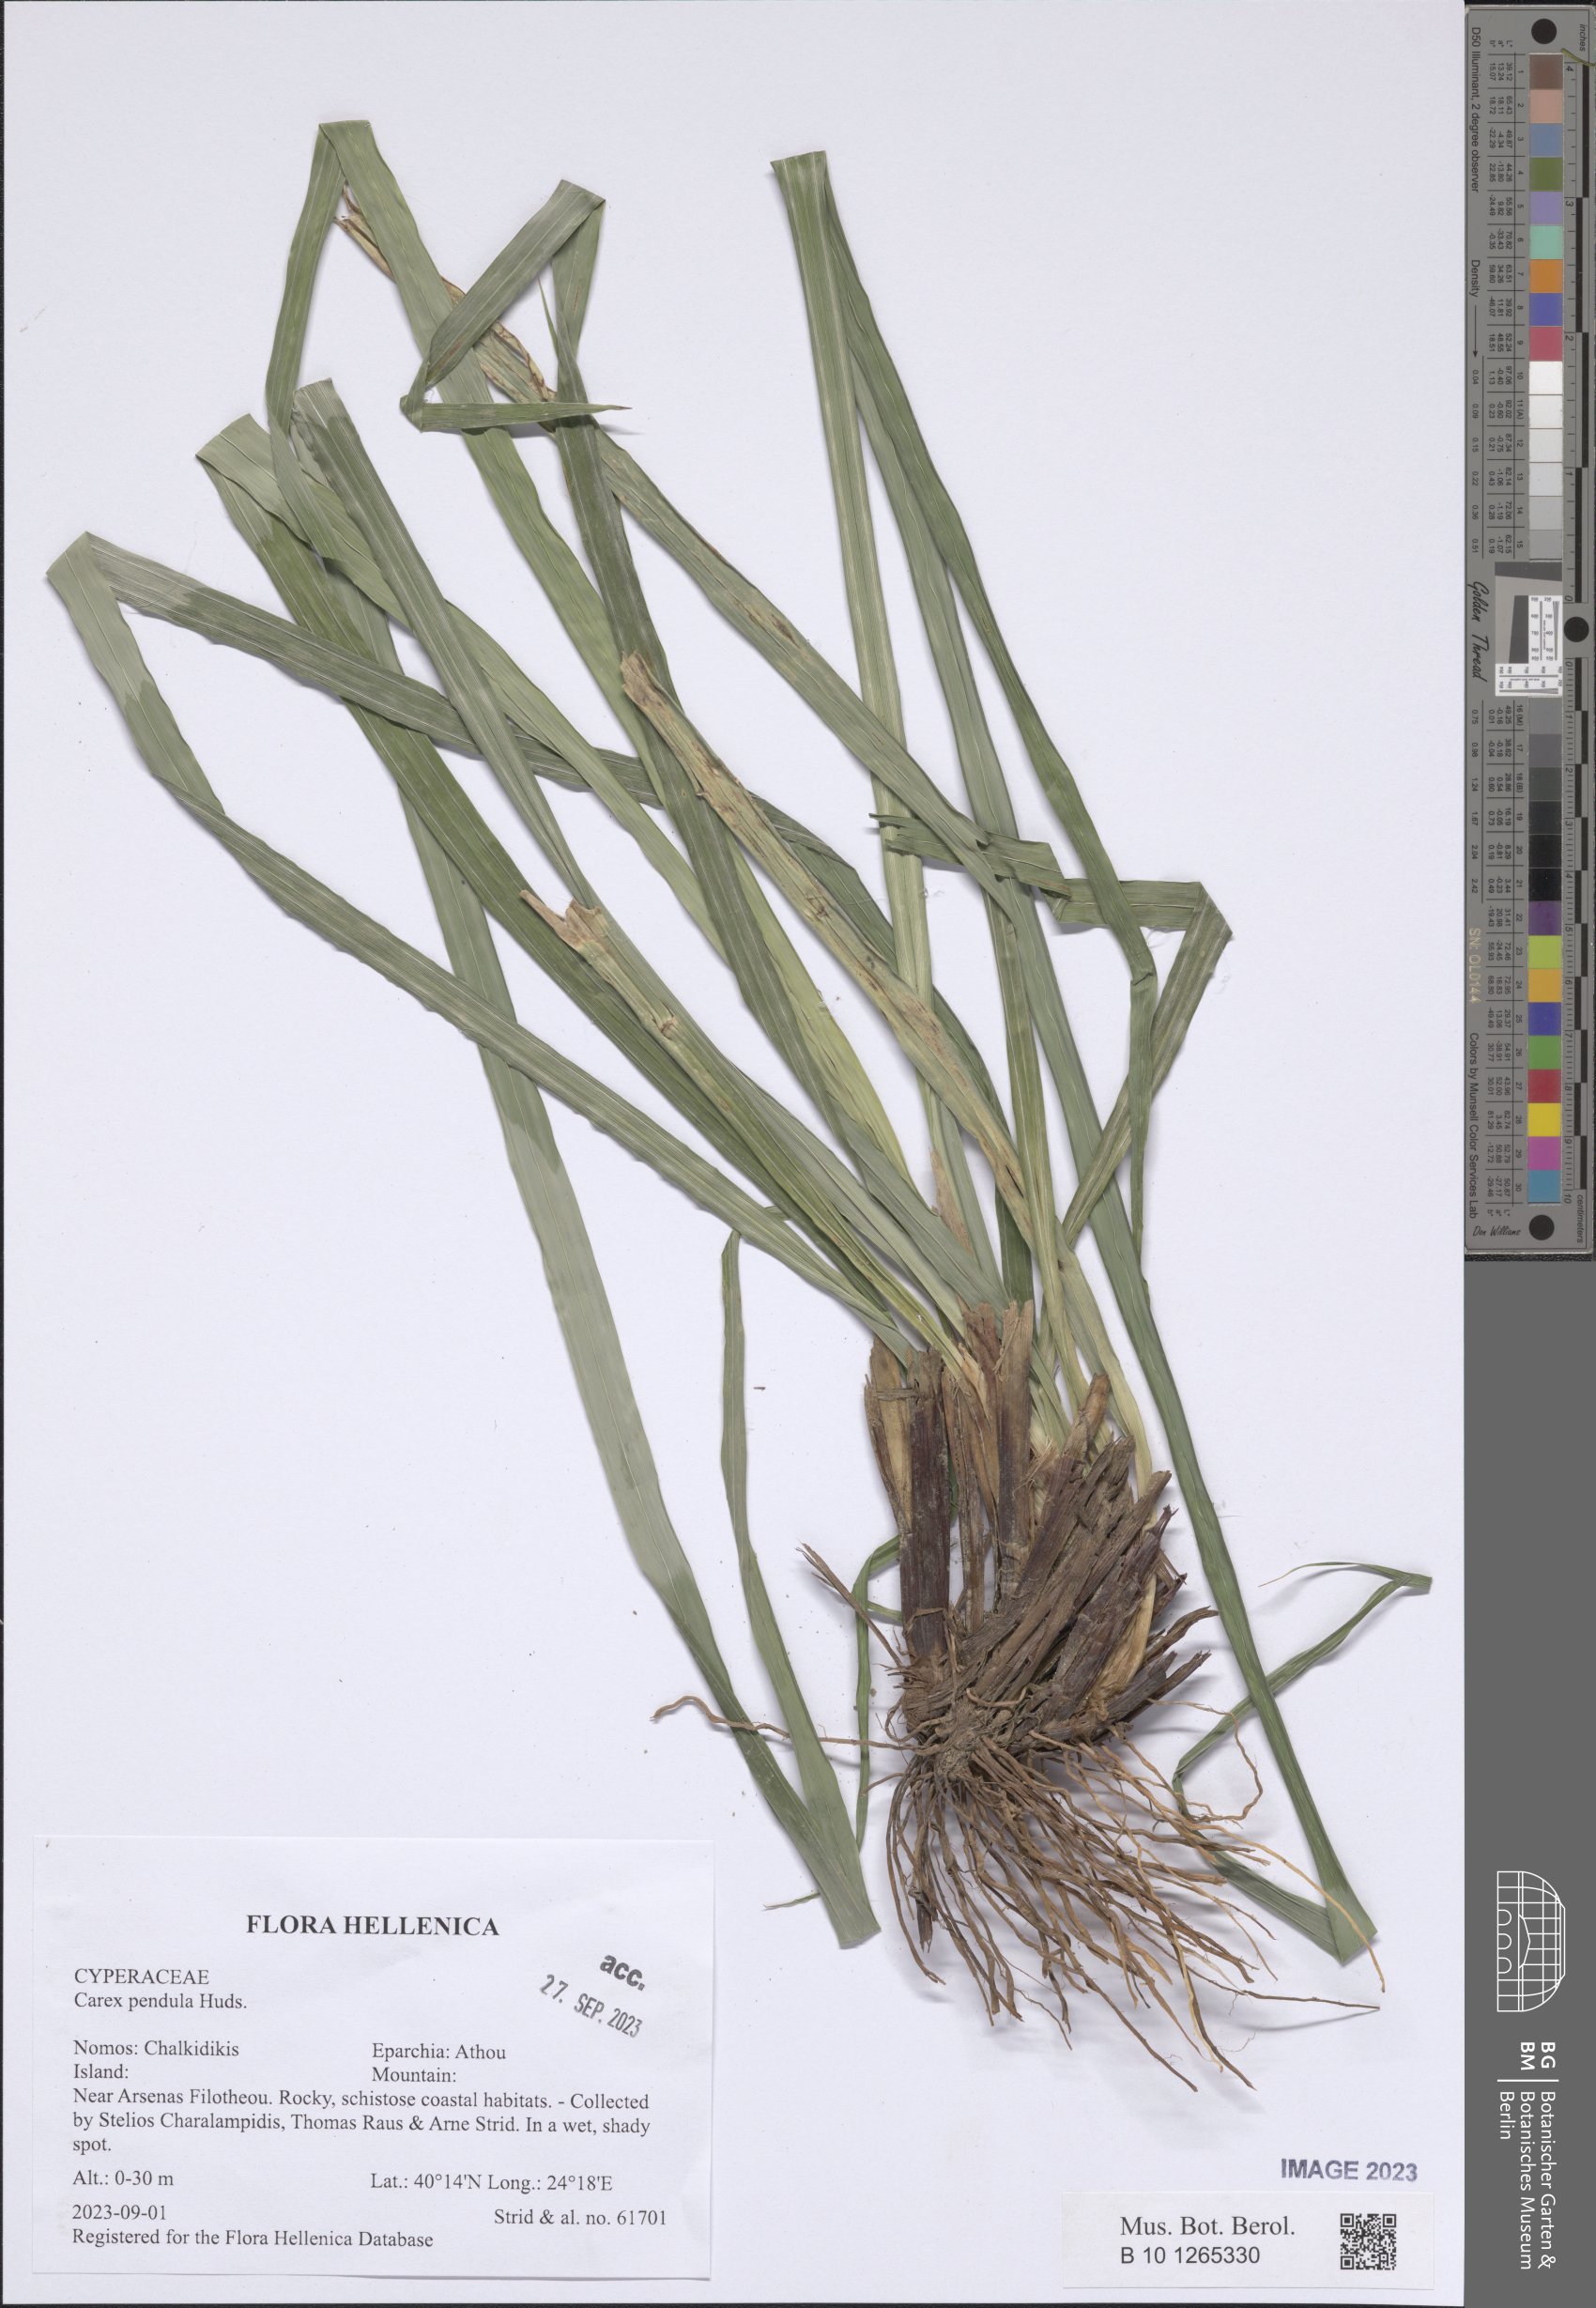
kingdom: Plantae
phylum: Tracheophyta
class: Liliopsida
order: Poales
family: Cyperaceae
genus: Carex
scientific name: Carex pendula
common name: Pendulous sedge
